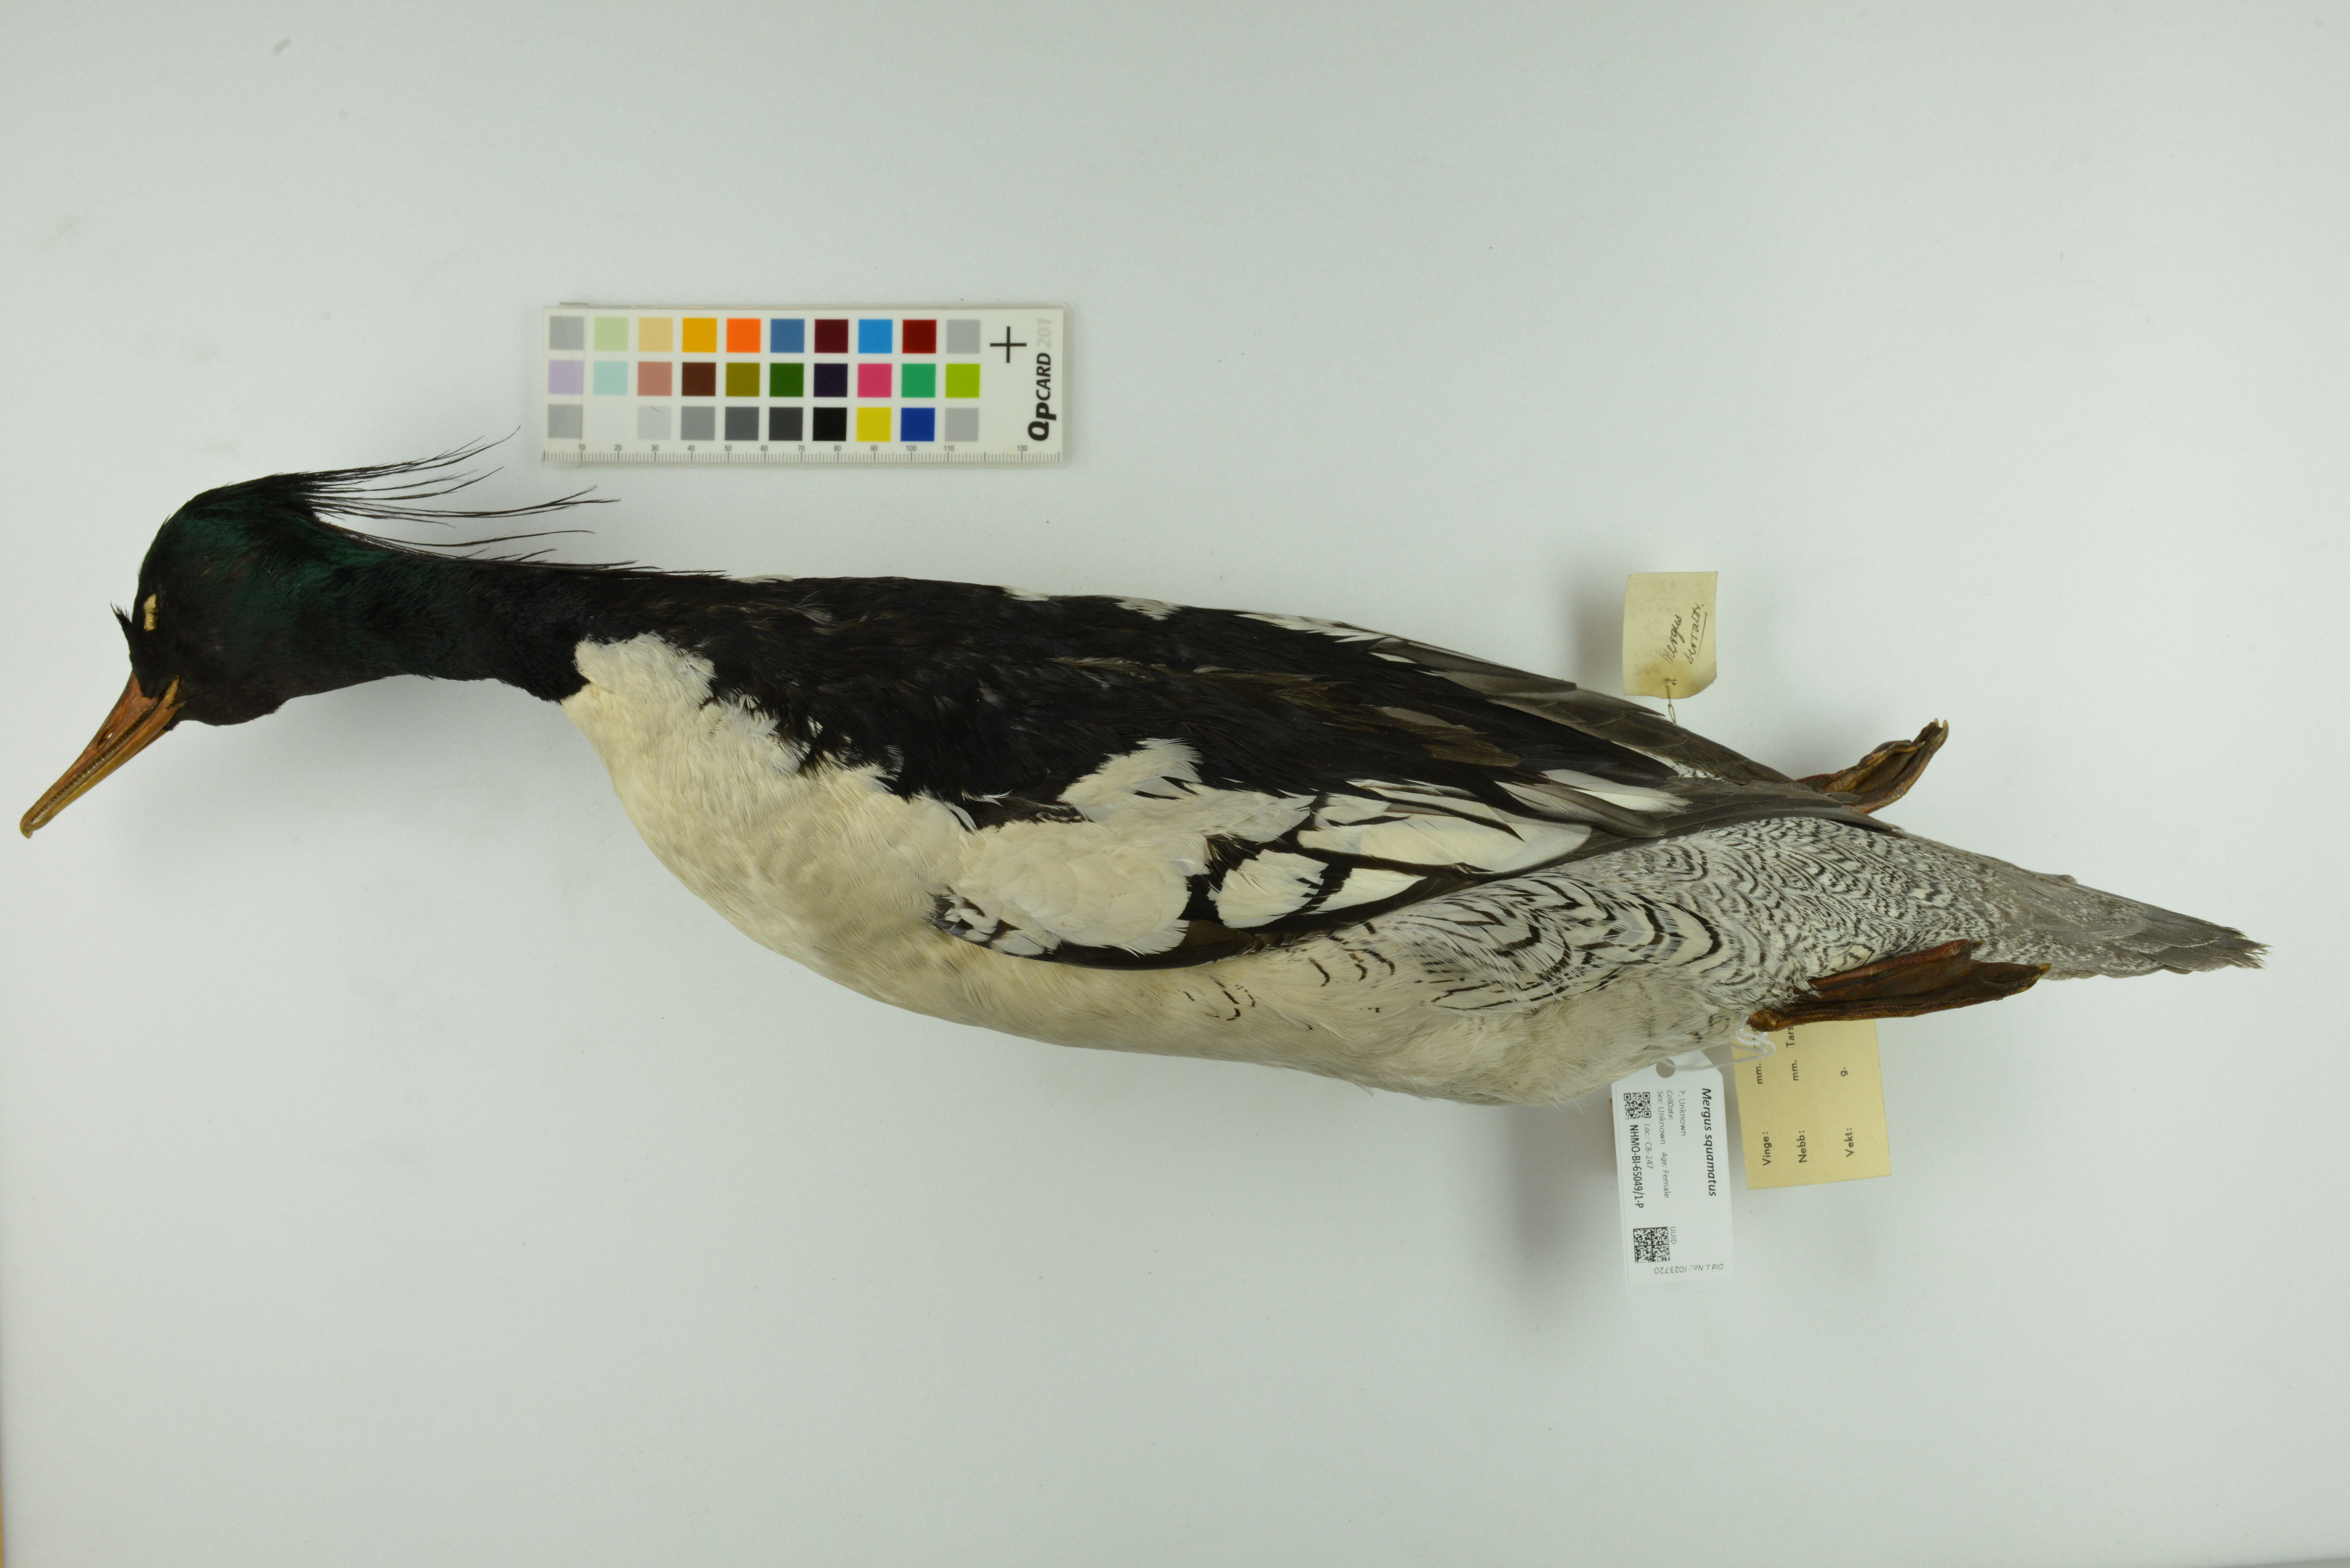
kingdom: Animalia
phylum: Chordata
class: Aves
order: Anseriformes
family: Anatidae
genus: Mergus
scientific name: Mergus squamatus
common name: Scaly-sided merganser
